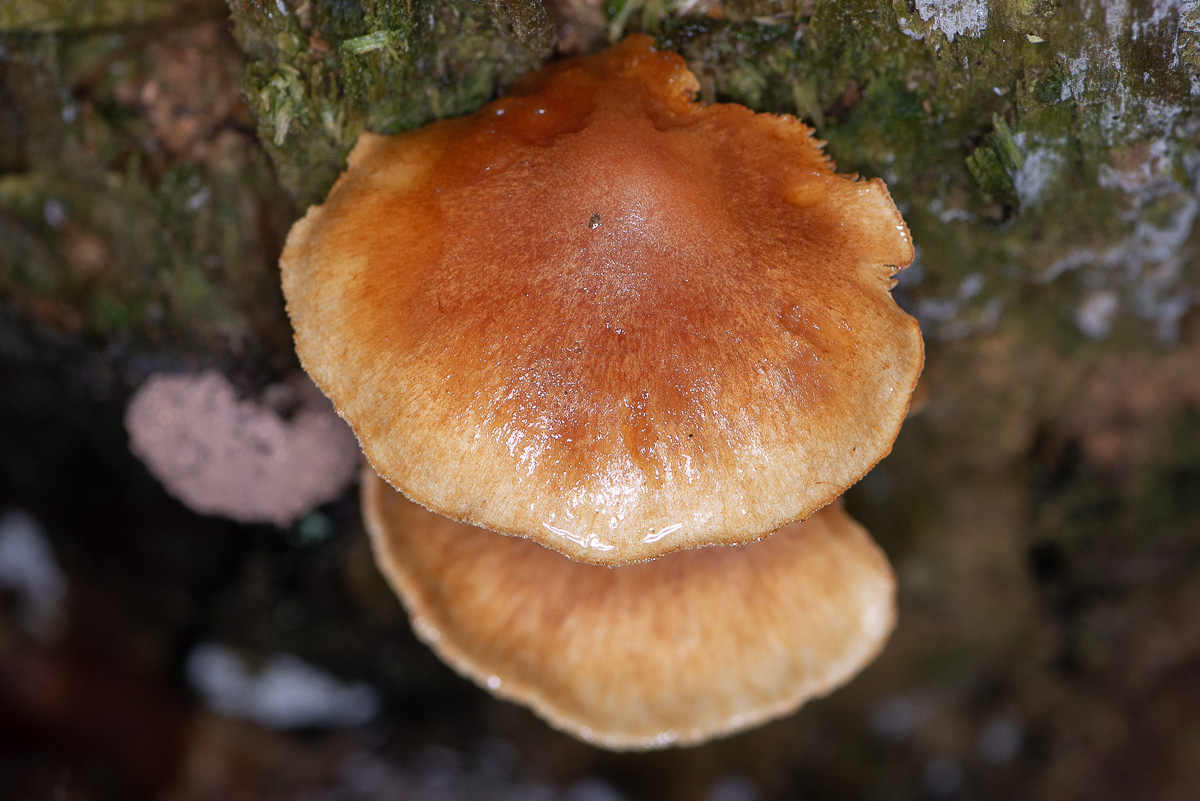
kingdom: Fungi
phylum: Basidiomycota
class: Agaricomycetes
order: Agaricales
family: Hymenogastraceae
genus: Gymnopilus
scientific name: Gymnopilus penetrans
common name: plettet flammehat
